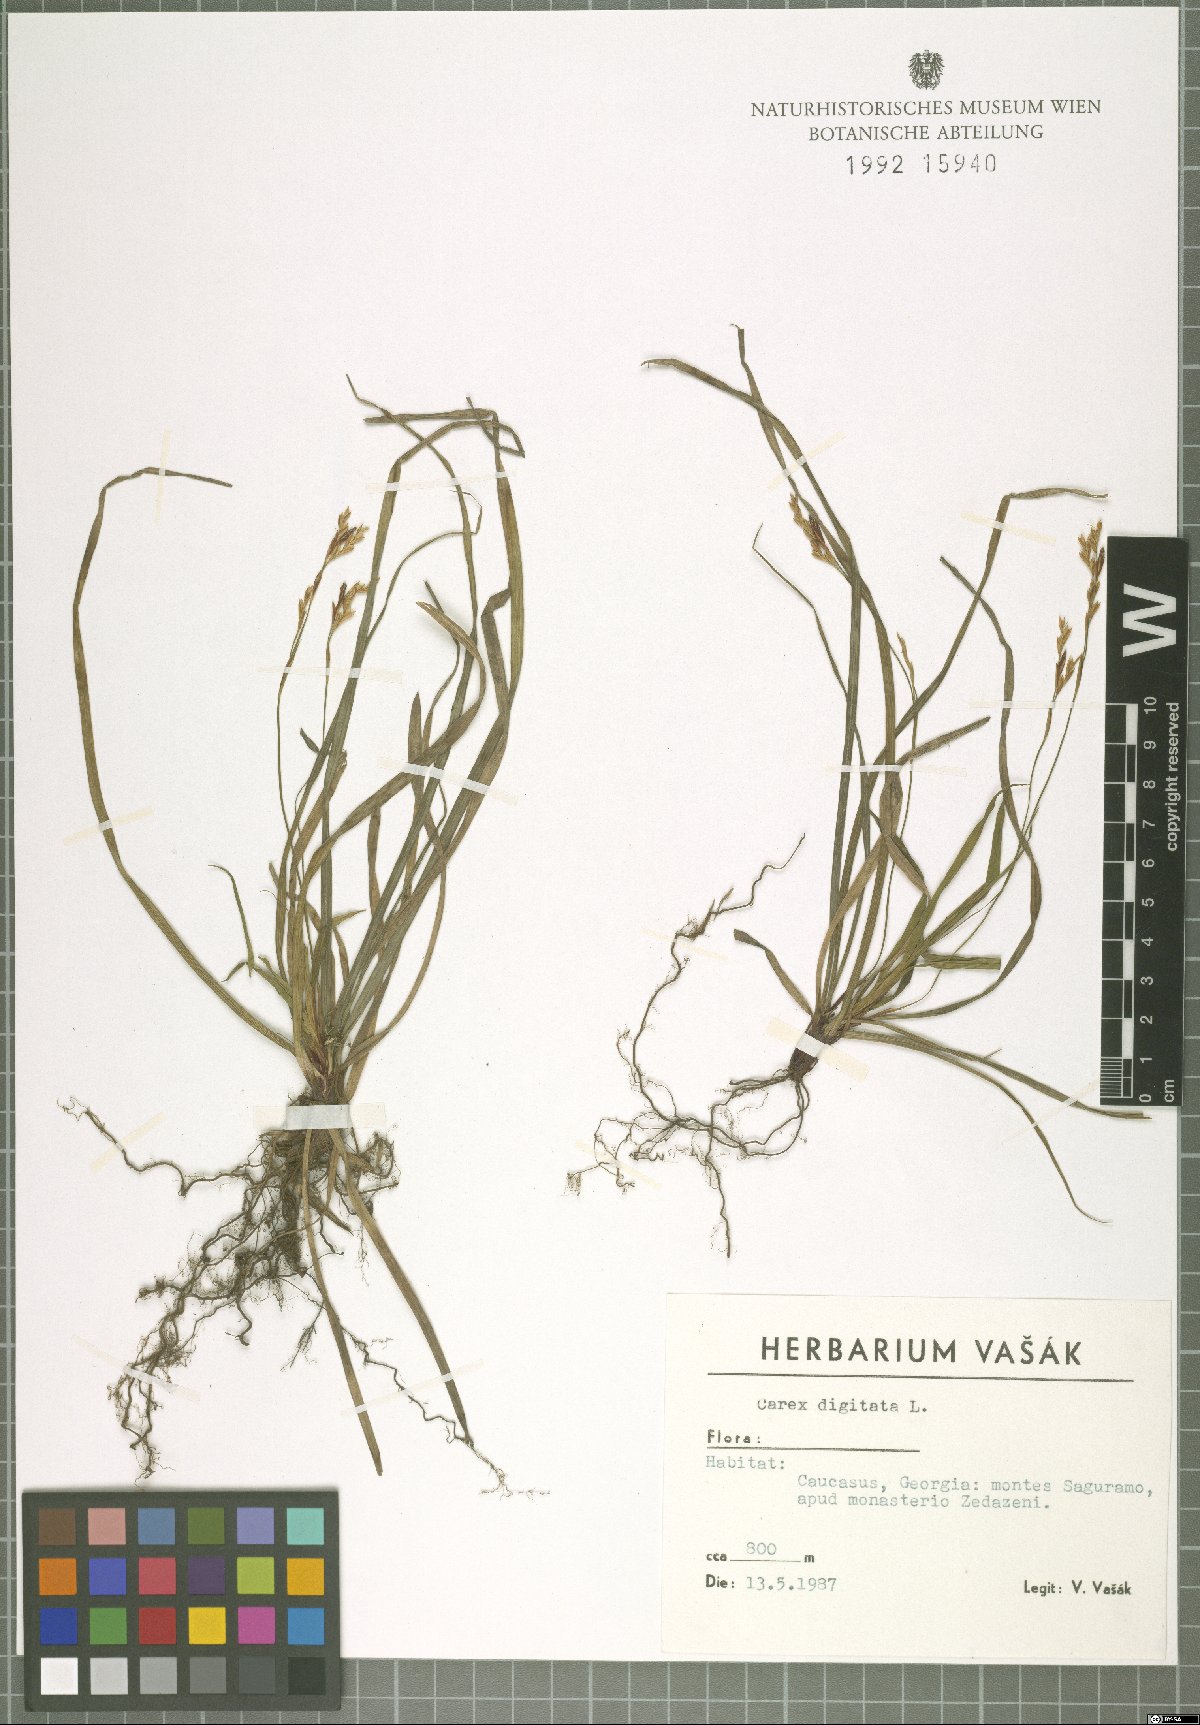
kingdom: Plantae
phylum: Tracheophyta
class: Liliopsida
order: Poales
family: Cyperaceae
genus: Carex
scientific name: Carex digitata
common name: Fingered sedge
